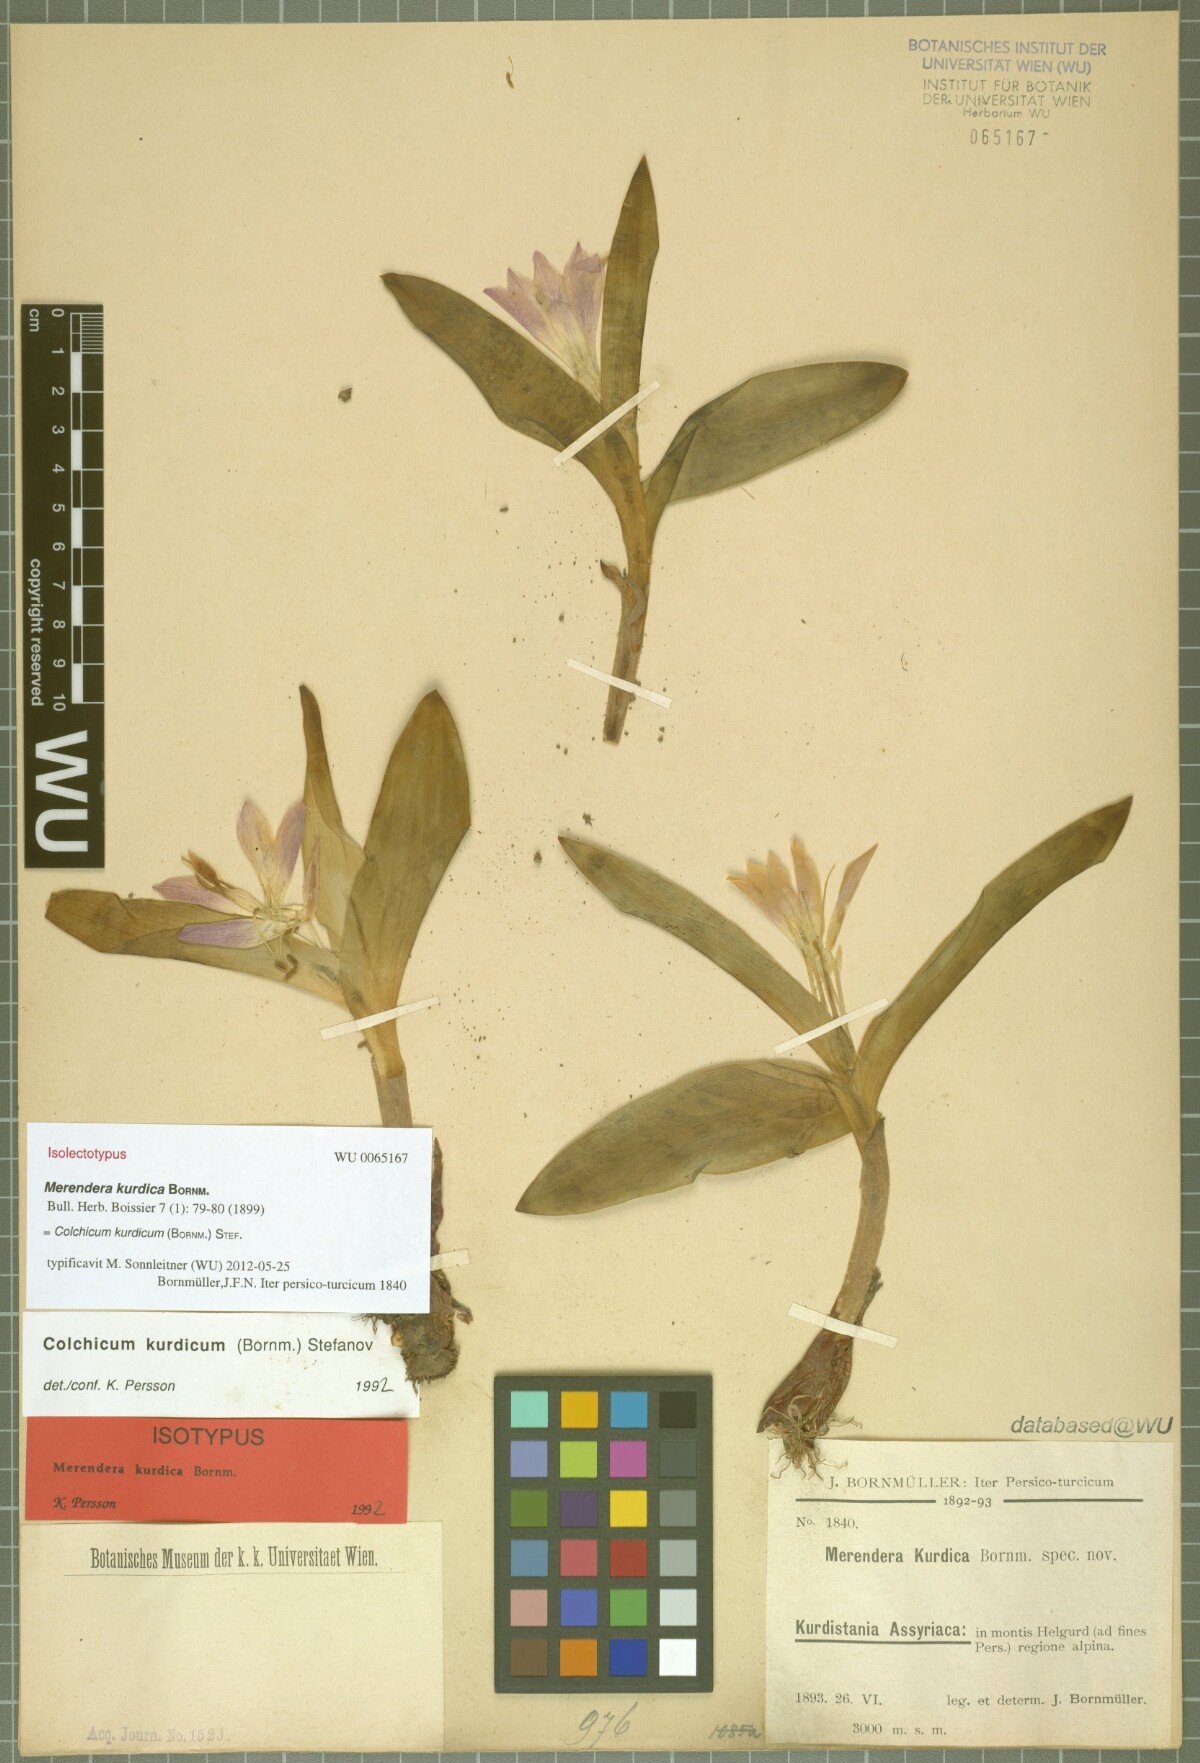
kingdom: Plantae
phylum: Tracheophyta
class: Liliopsida
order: Liliales
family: Colchicaceae
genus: Colchicum
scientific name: Colchicum kurdicum
